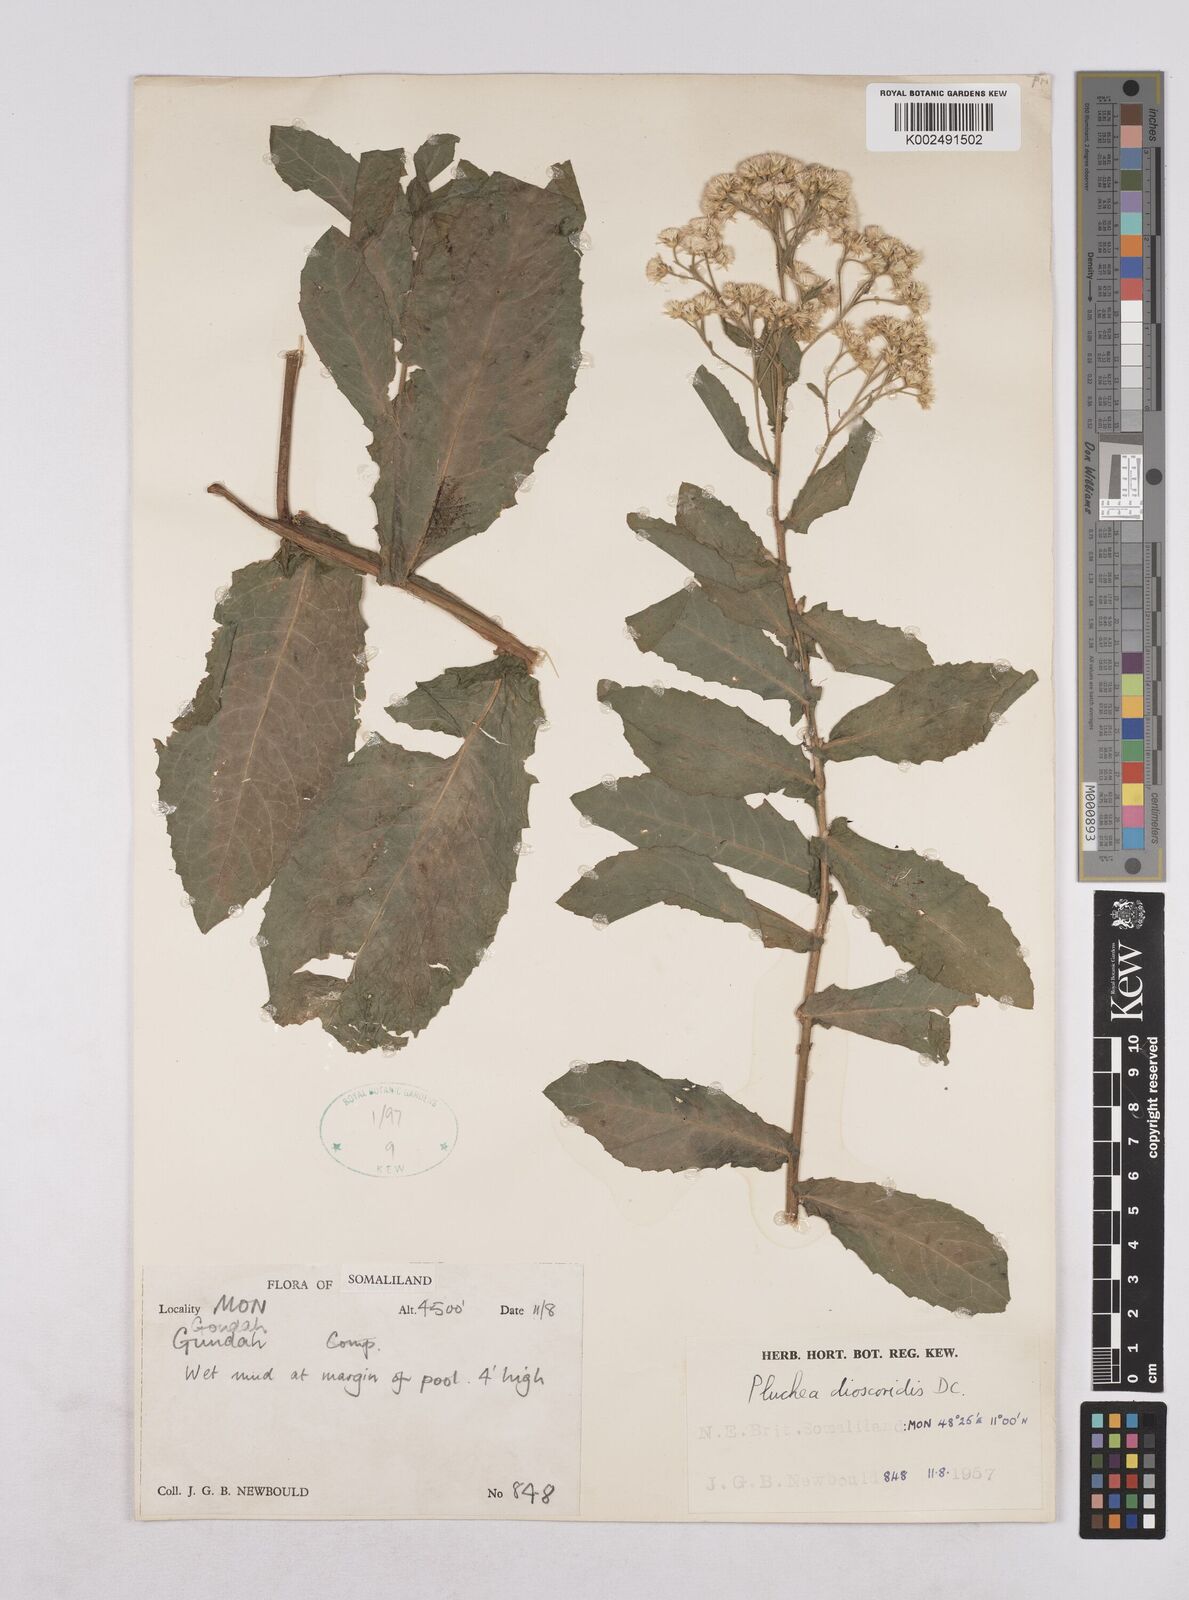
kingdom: Plantae
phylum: Tracheophyta
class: Magnoliopsida
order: Asterales
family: Asteraceae
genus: Pluchea
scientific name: Pluchea dioscoridis
